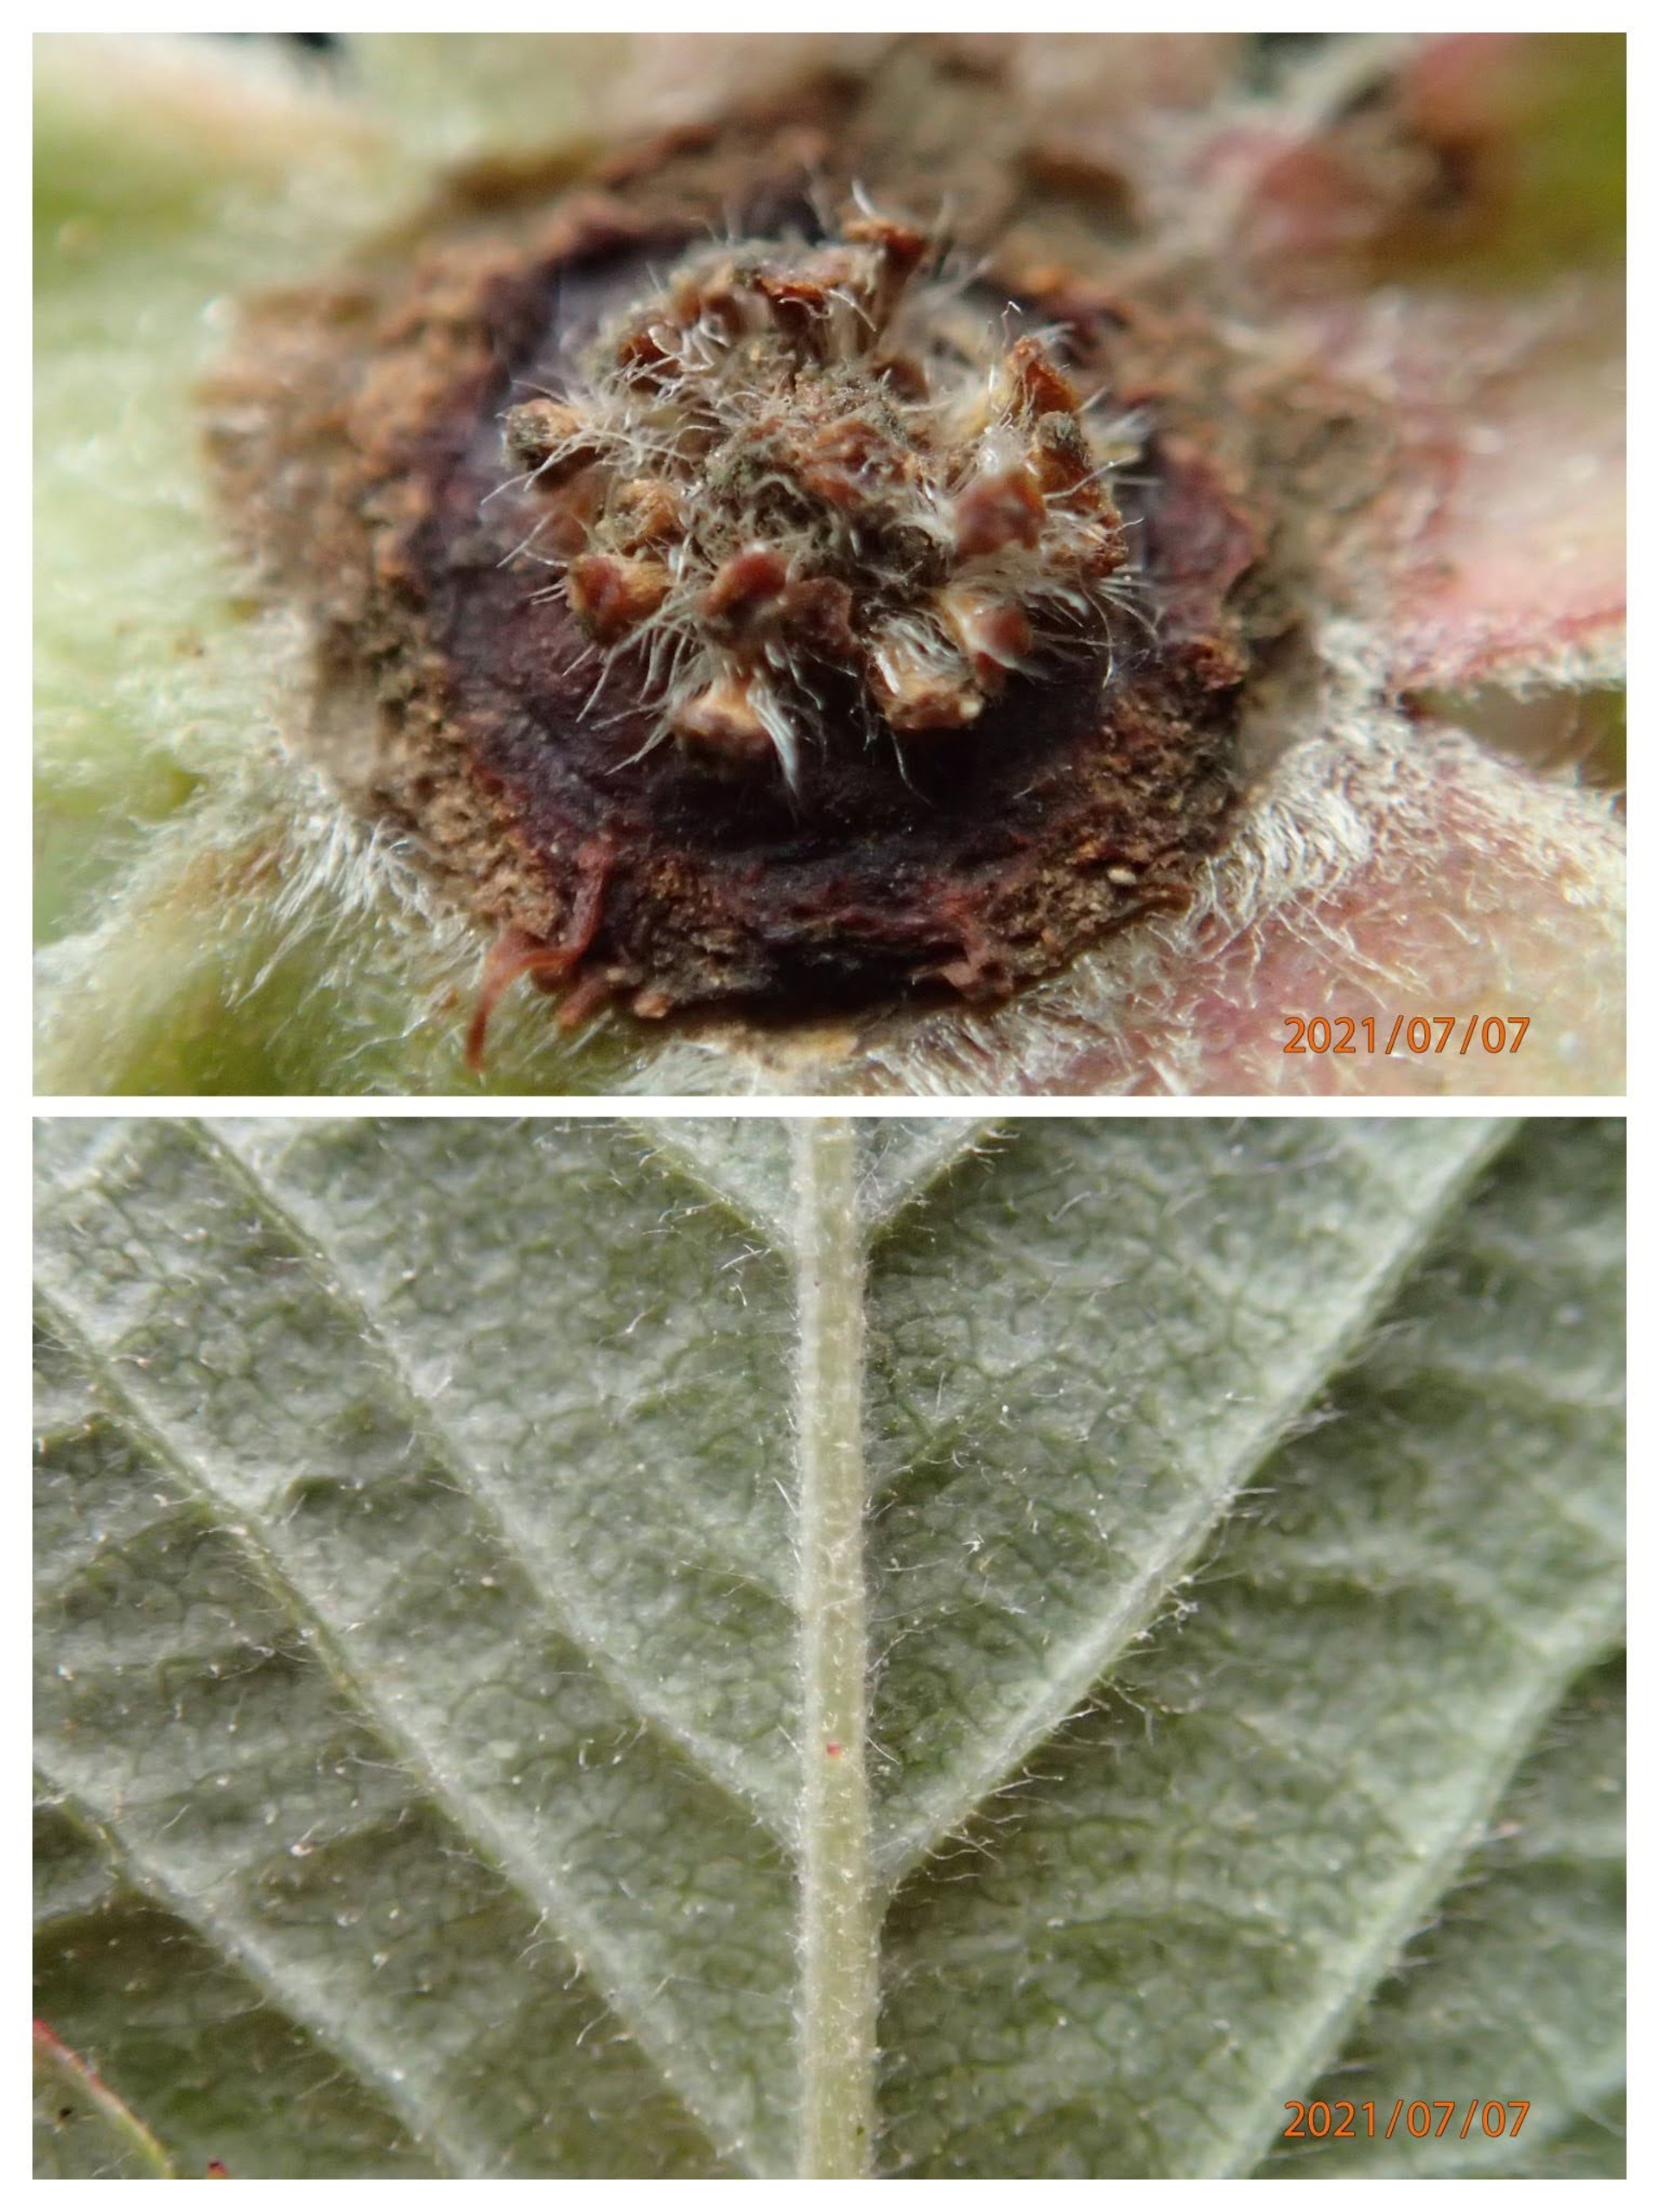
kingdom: Plantae
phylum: Tracheophyta
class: Magnoliopsida
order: Rosales
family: Rosaceae
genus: Rosa
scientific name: Rosa caesia
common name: Håret blågrøn rose
